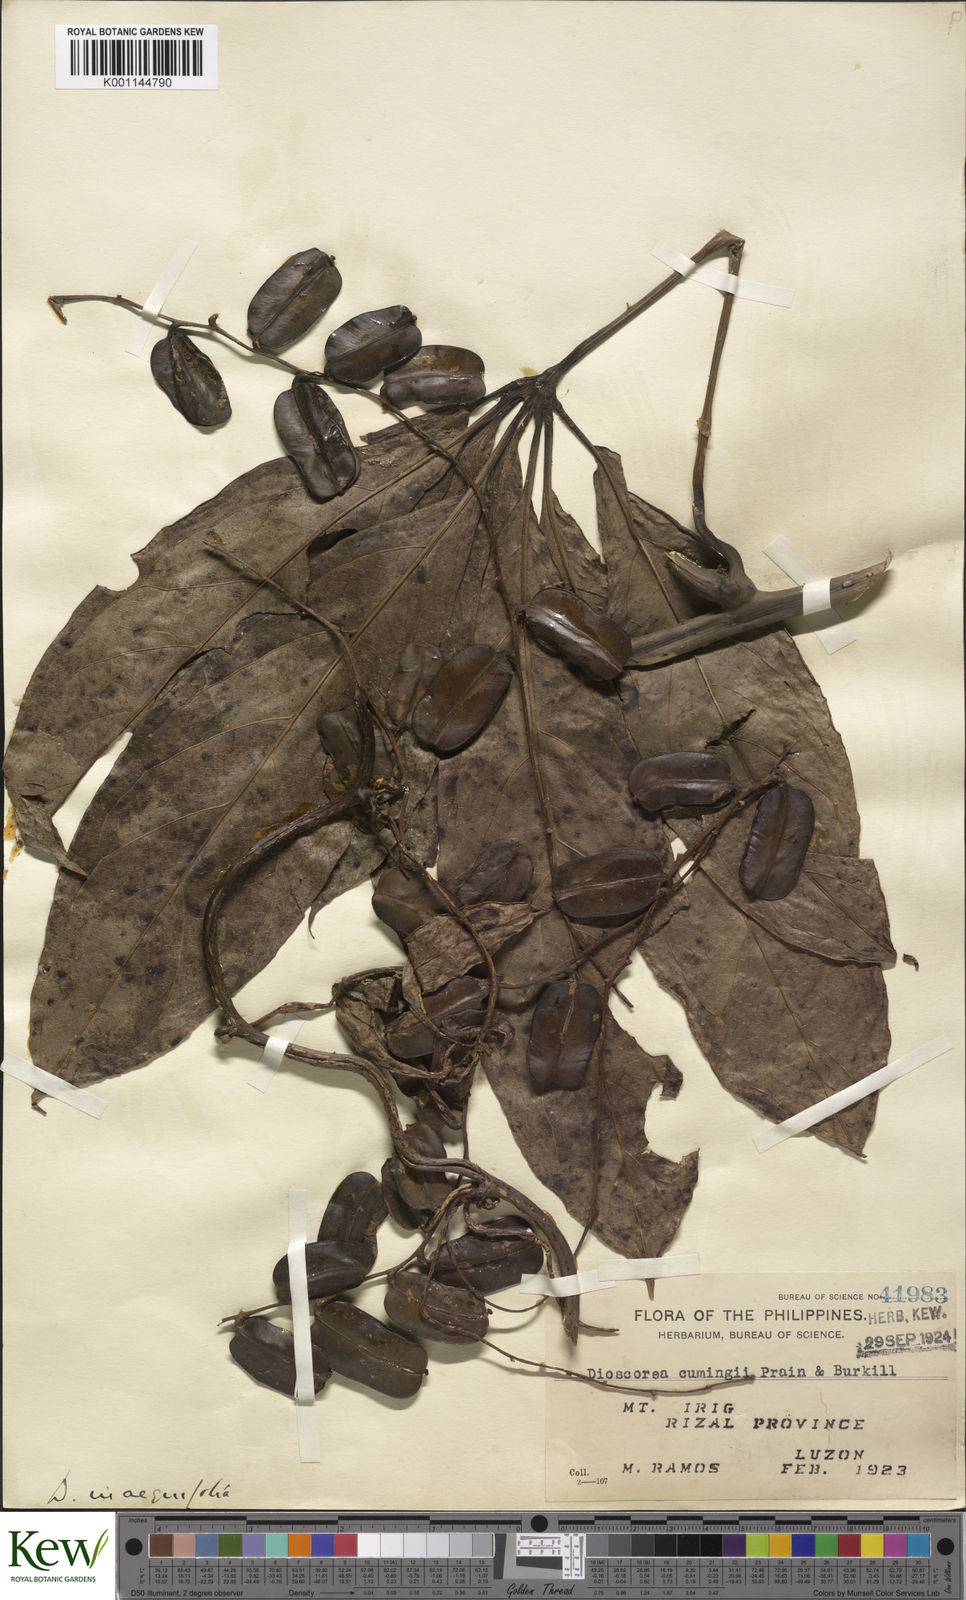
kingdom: Plantae
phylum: Tracheophyta
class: Liliopsida
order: Dioscoreales
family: Dioscoreaceae
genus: Dioscorea
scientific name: Dioscorea cumingii
